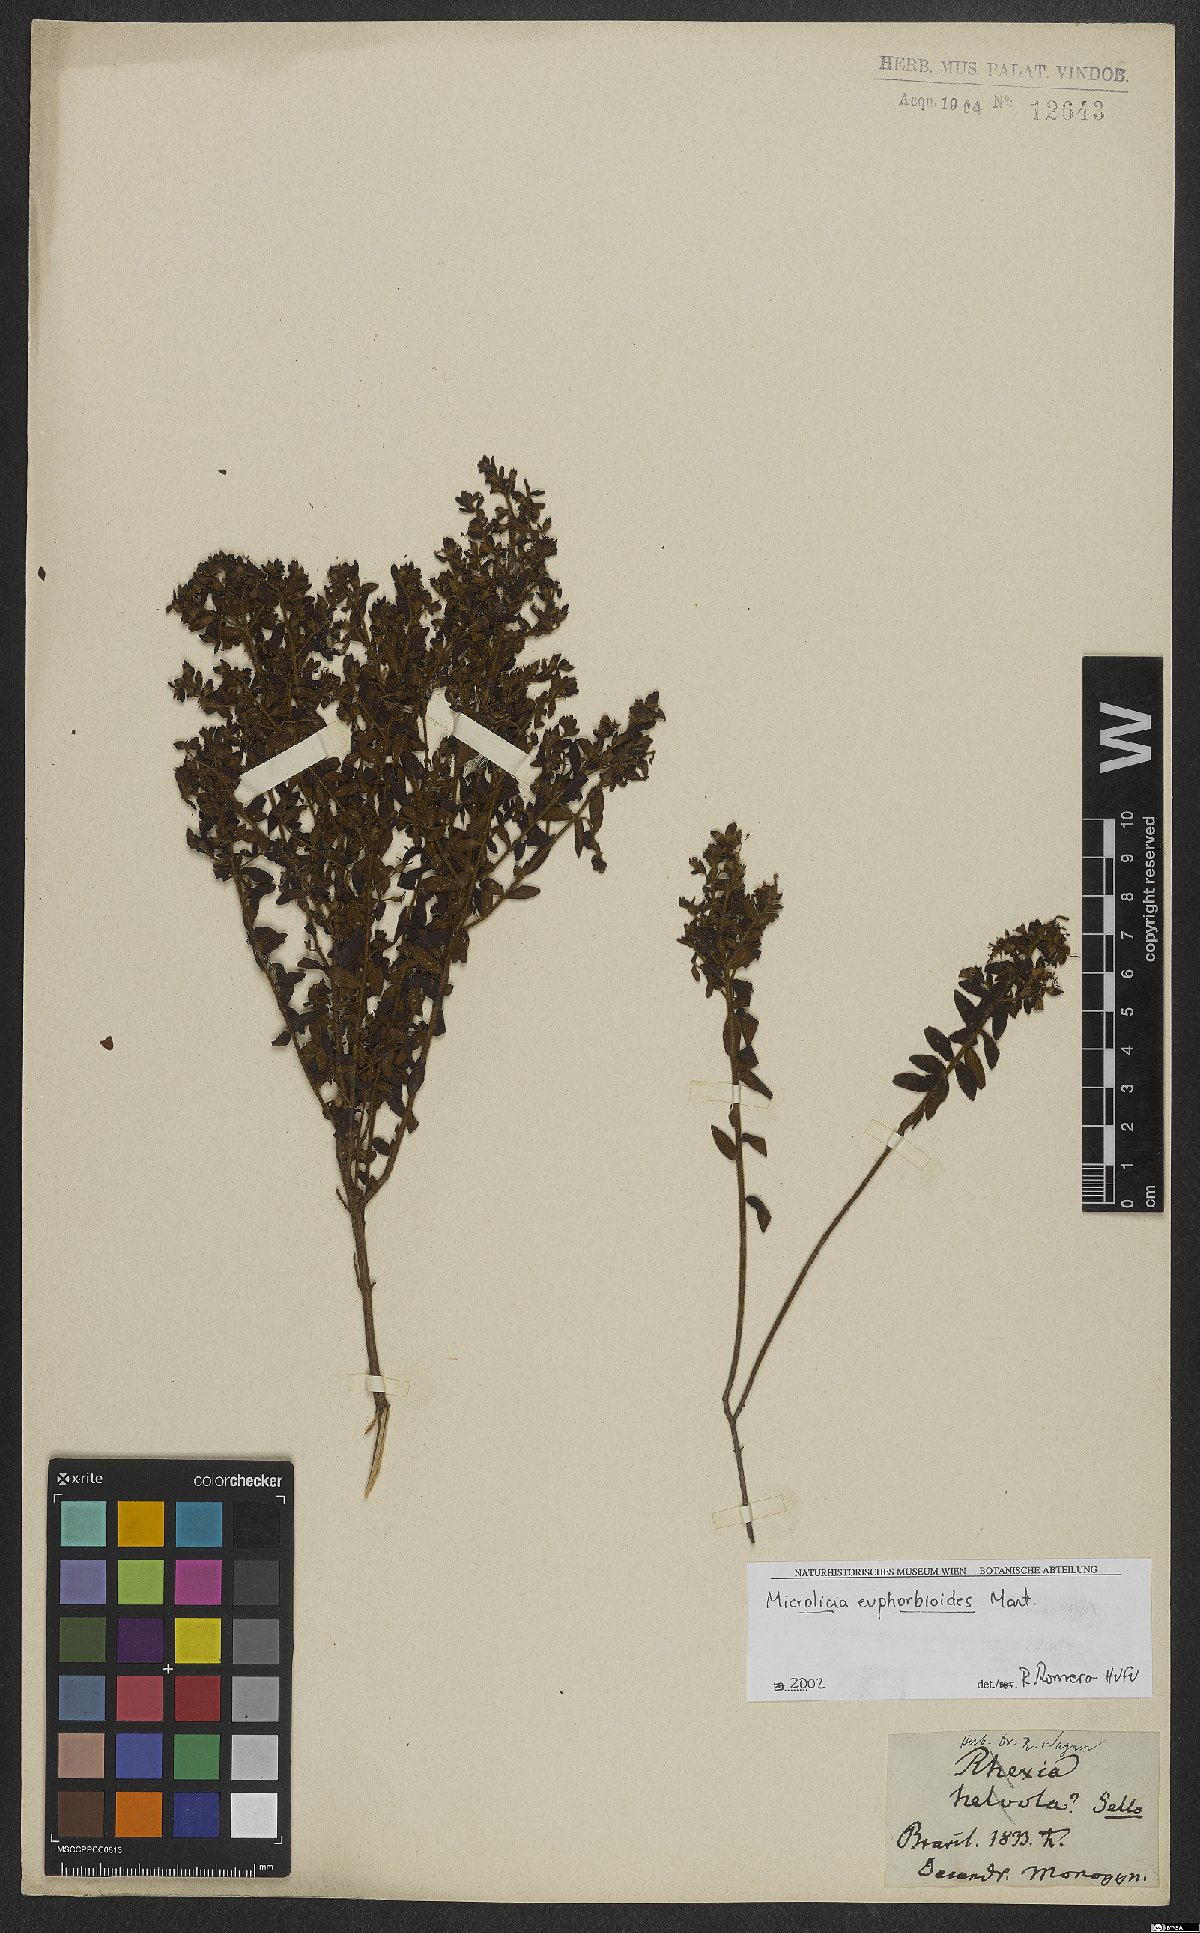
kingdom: Plantae
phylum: Tracheophyta
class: Magnoliopsida
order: Myrtales
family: Melastomataceae
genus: Microlicia
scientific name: Microlicia euphorbioides
